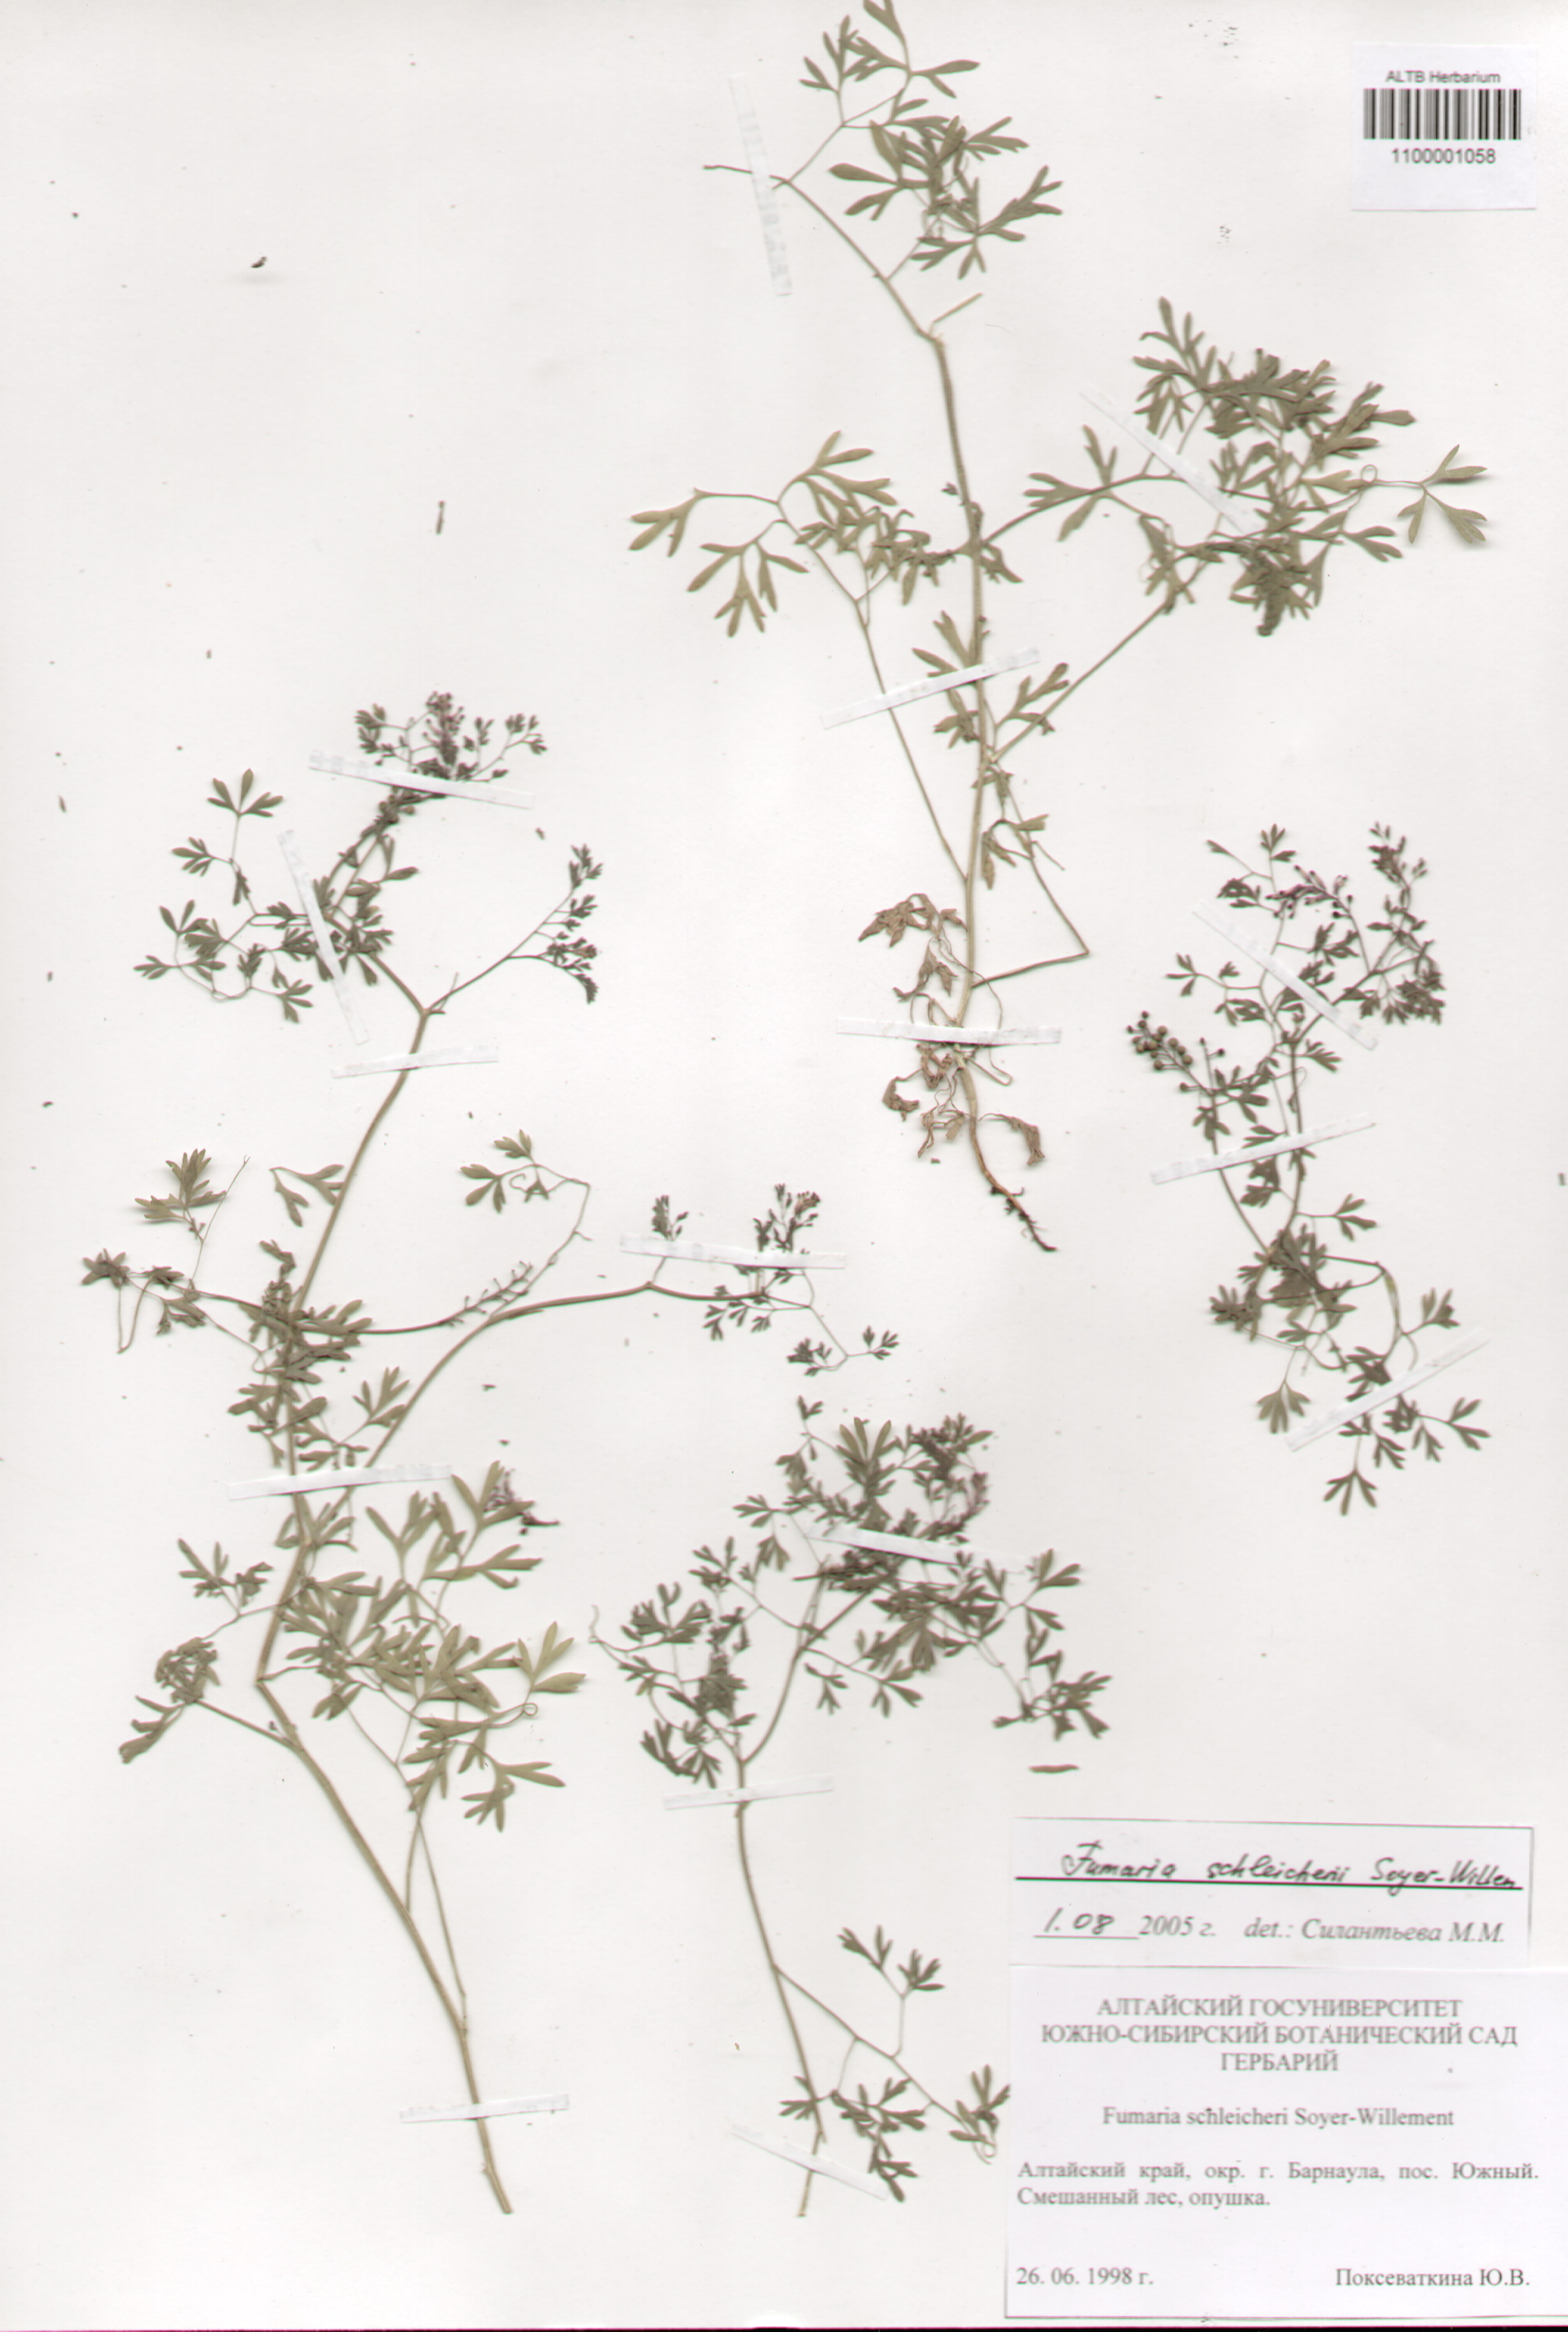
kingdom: Plantae
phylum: Tracheophyta
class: Magnoliopsida
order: Ranunculales
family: Papaveraceae
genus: Fumaria
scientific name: Fumaria schleicheri
